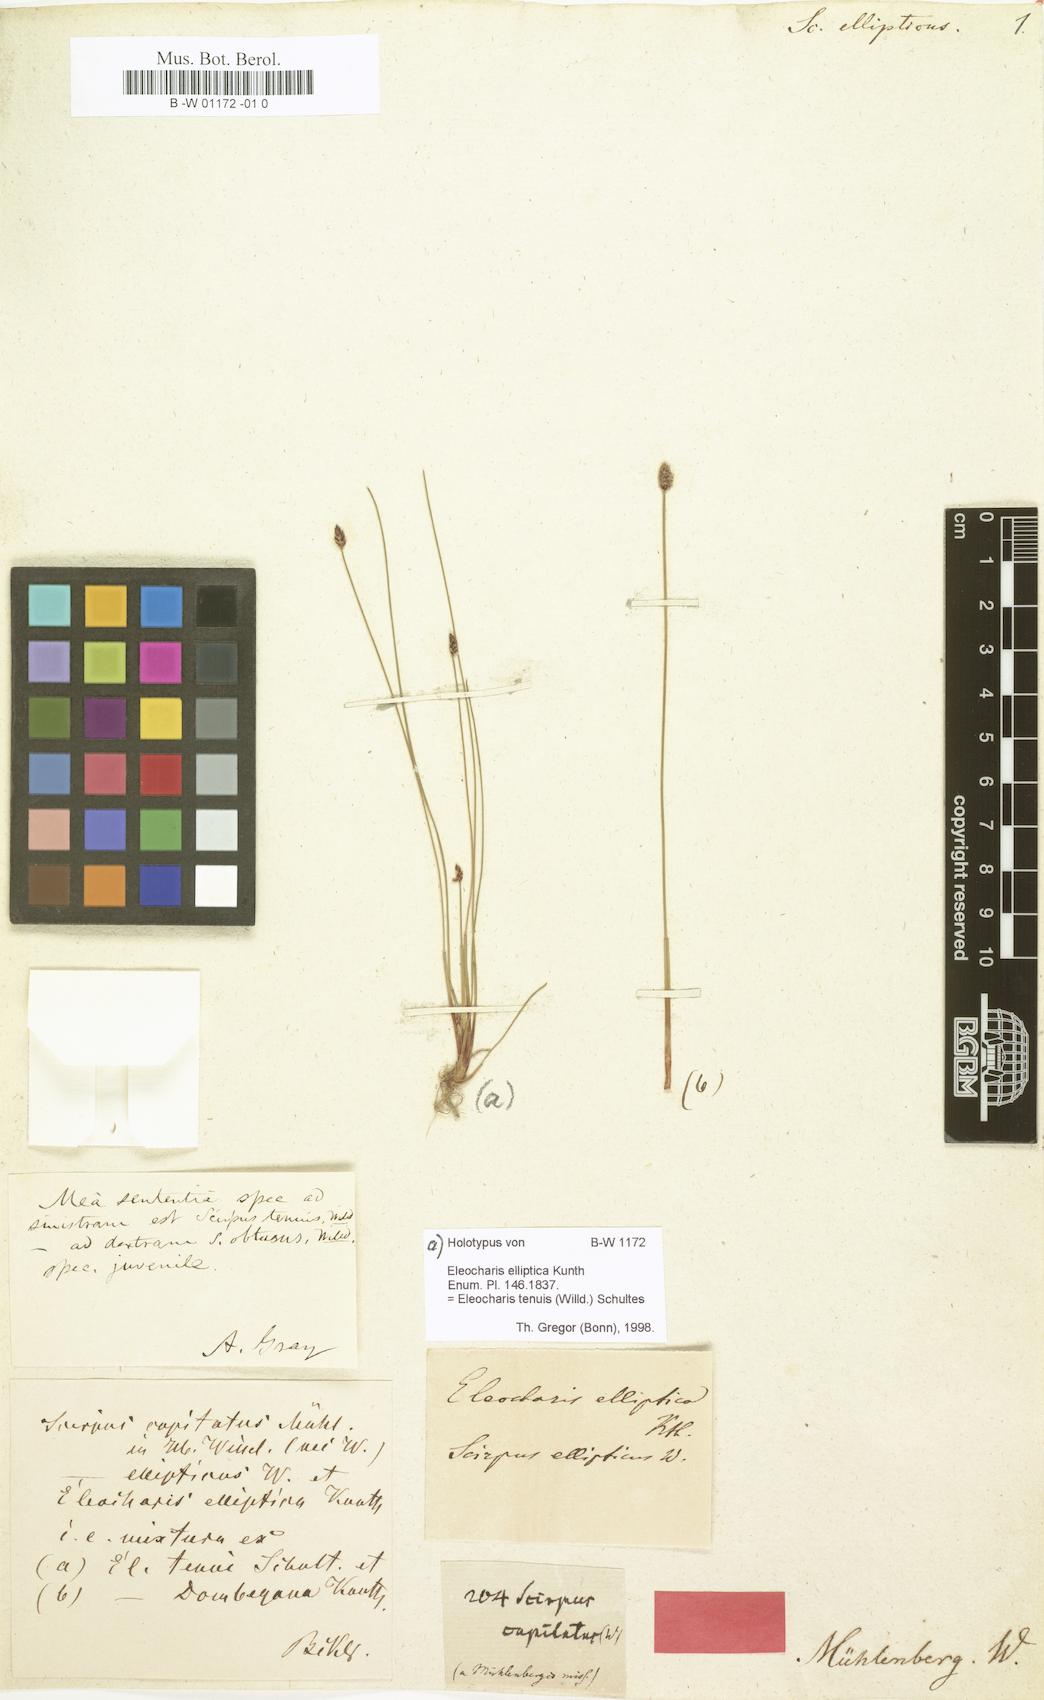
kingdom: Plantae
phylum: Tracheophyta
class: Liliopsida
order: Poales
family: Cyperaceae
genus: Eleocharis
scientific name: Eleocharis tenuis
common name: Dog's hair
